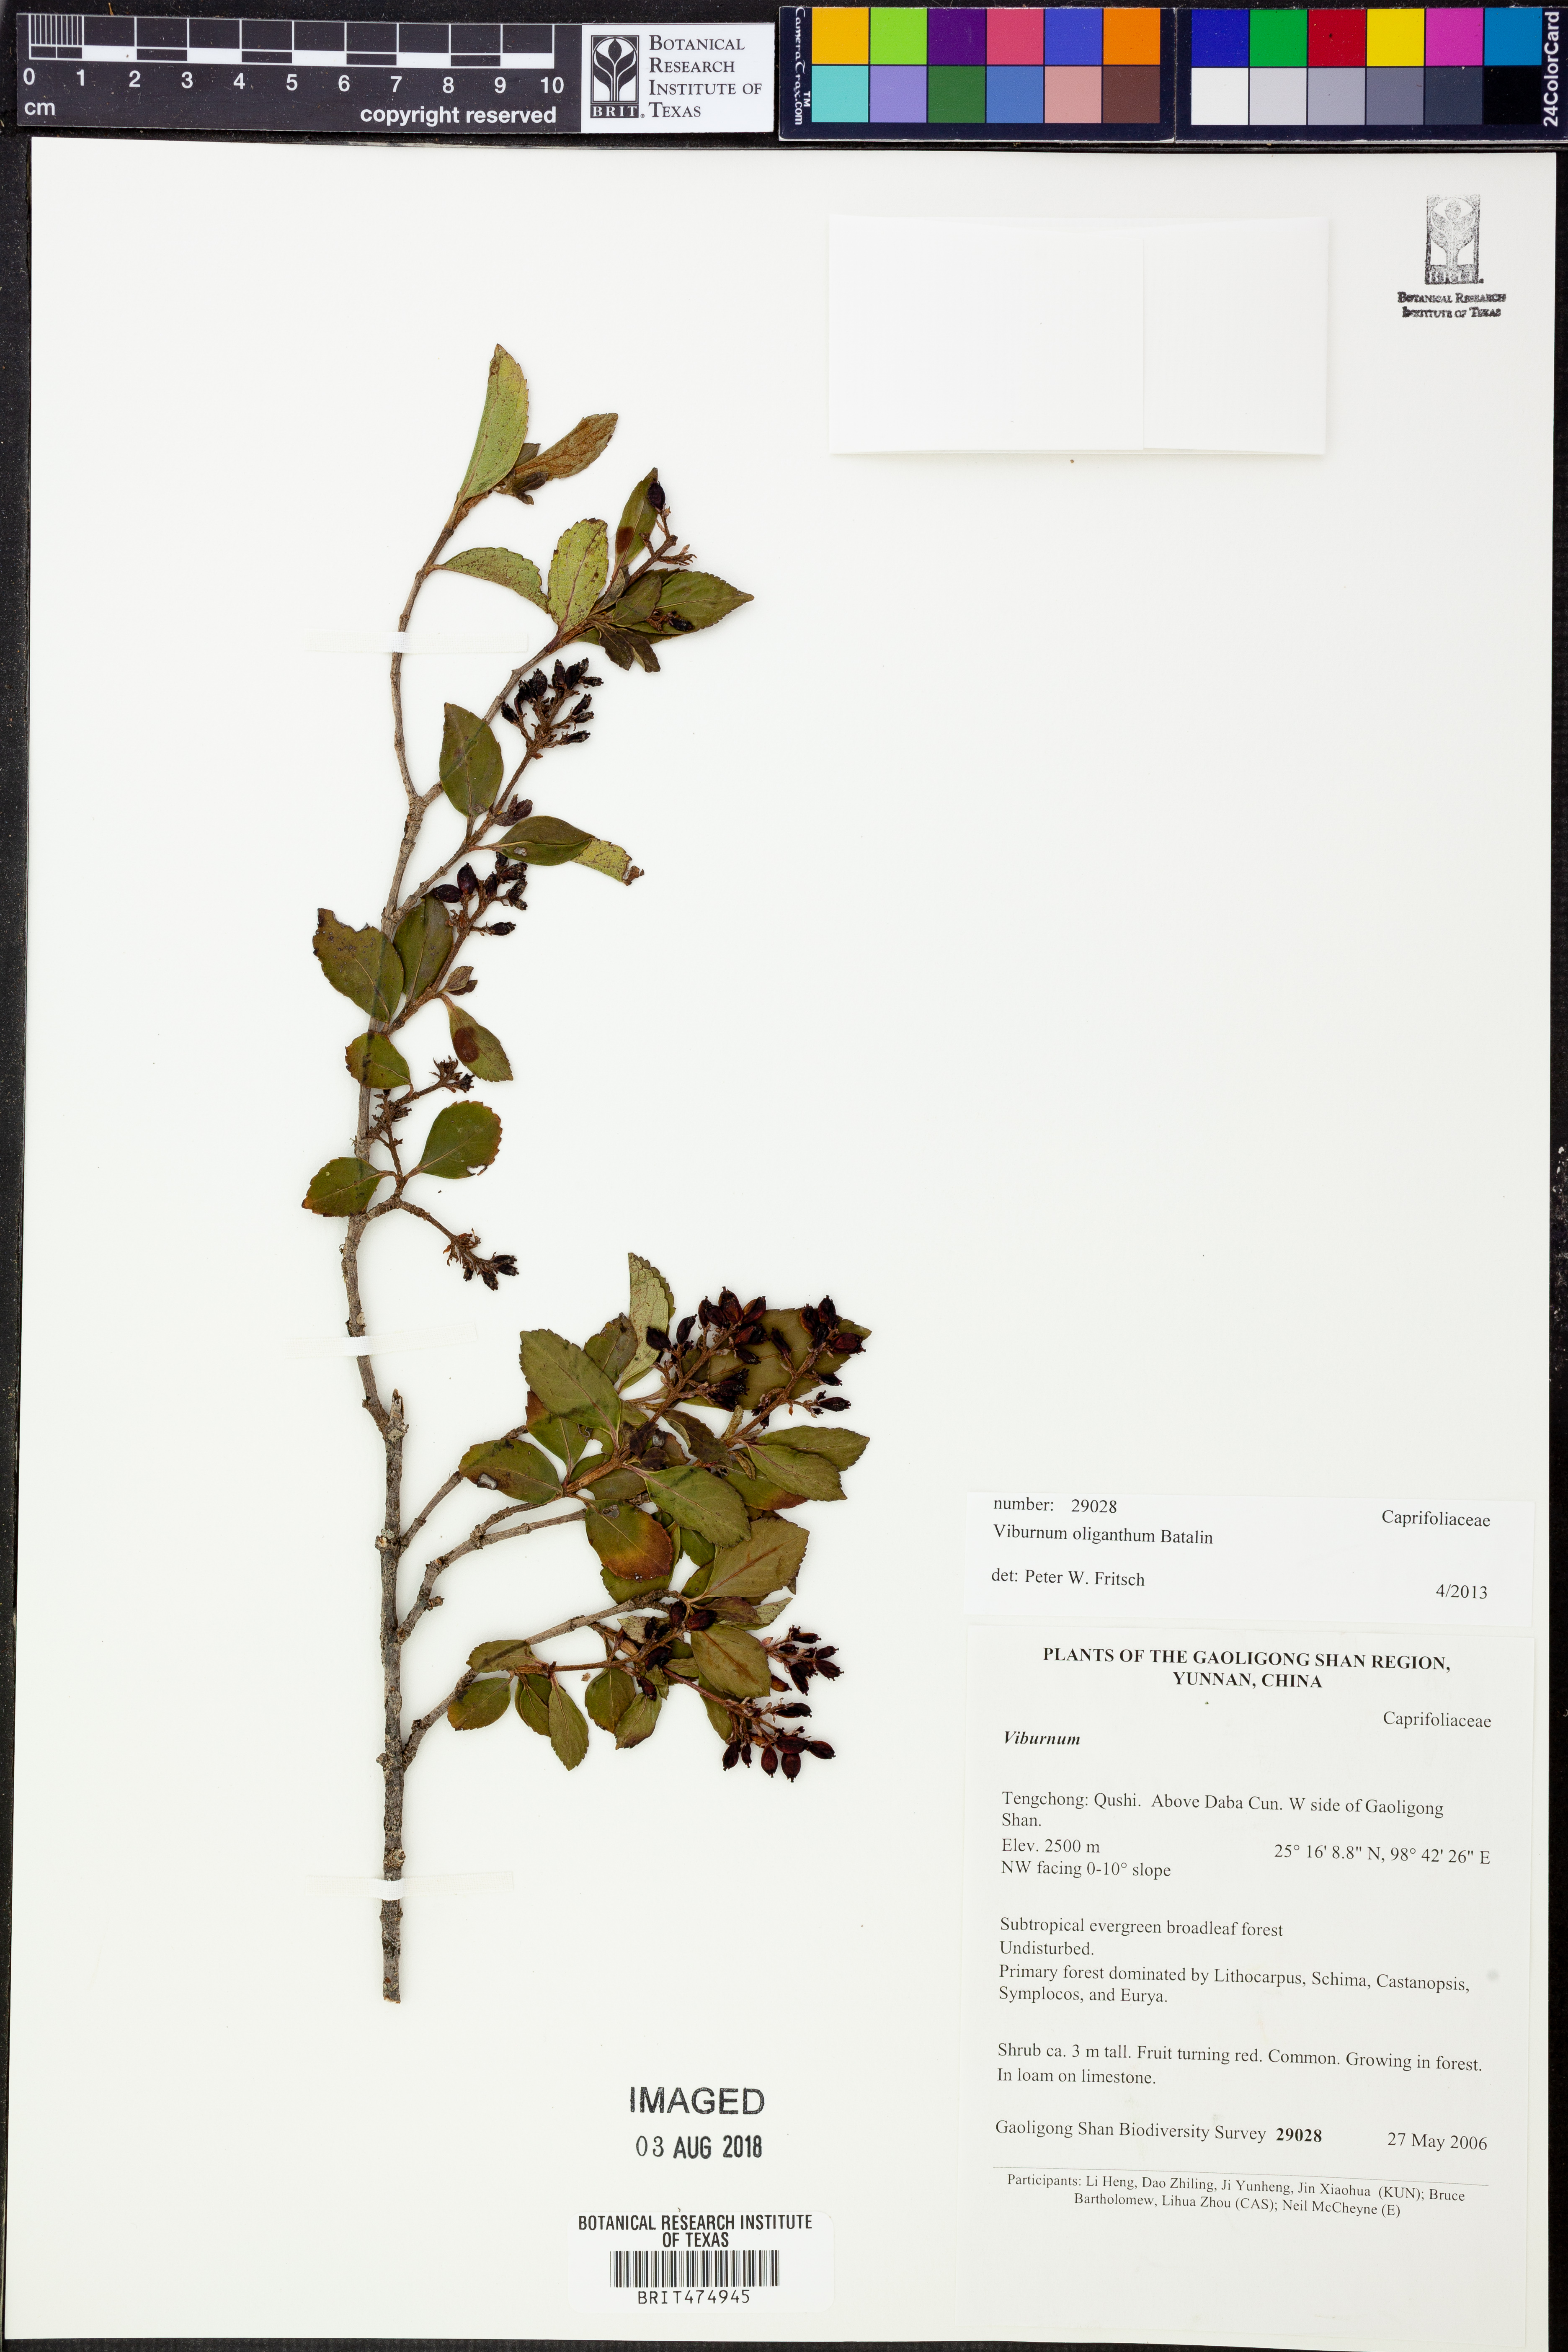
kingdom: Plantae
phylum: Tracheophyta
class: Magnoliopsida
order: Dipsacales
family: Viburnaceae
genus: Viburnum
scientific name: Viburnum oliganthum
